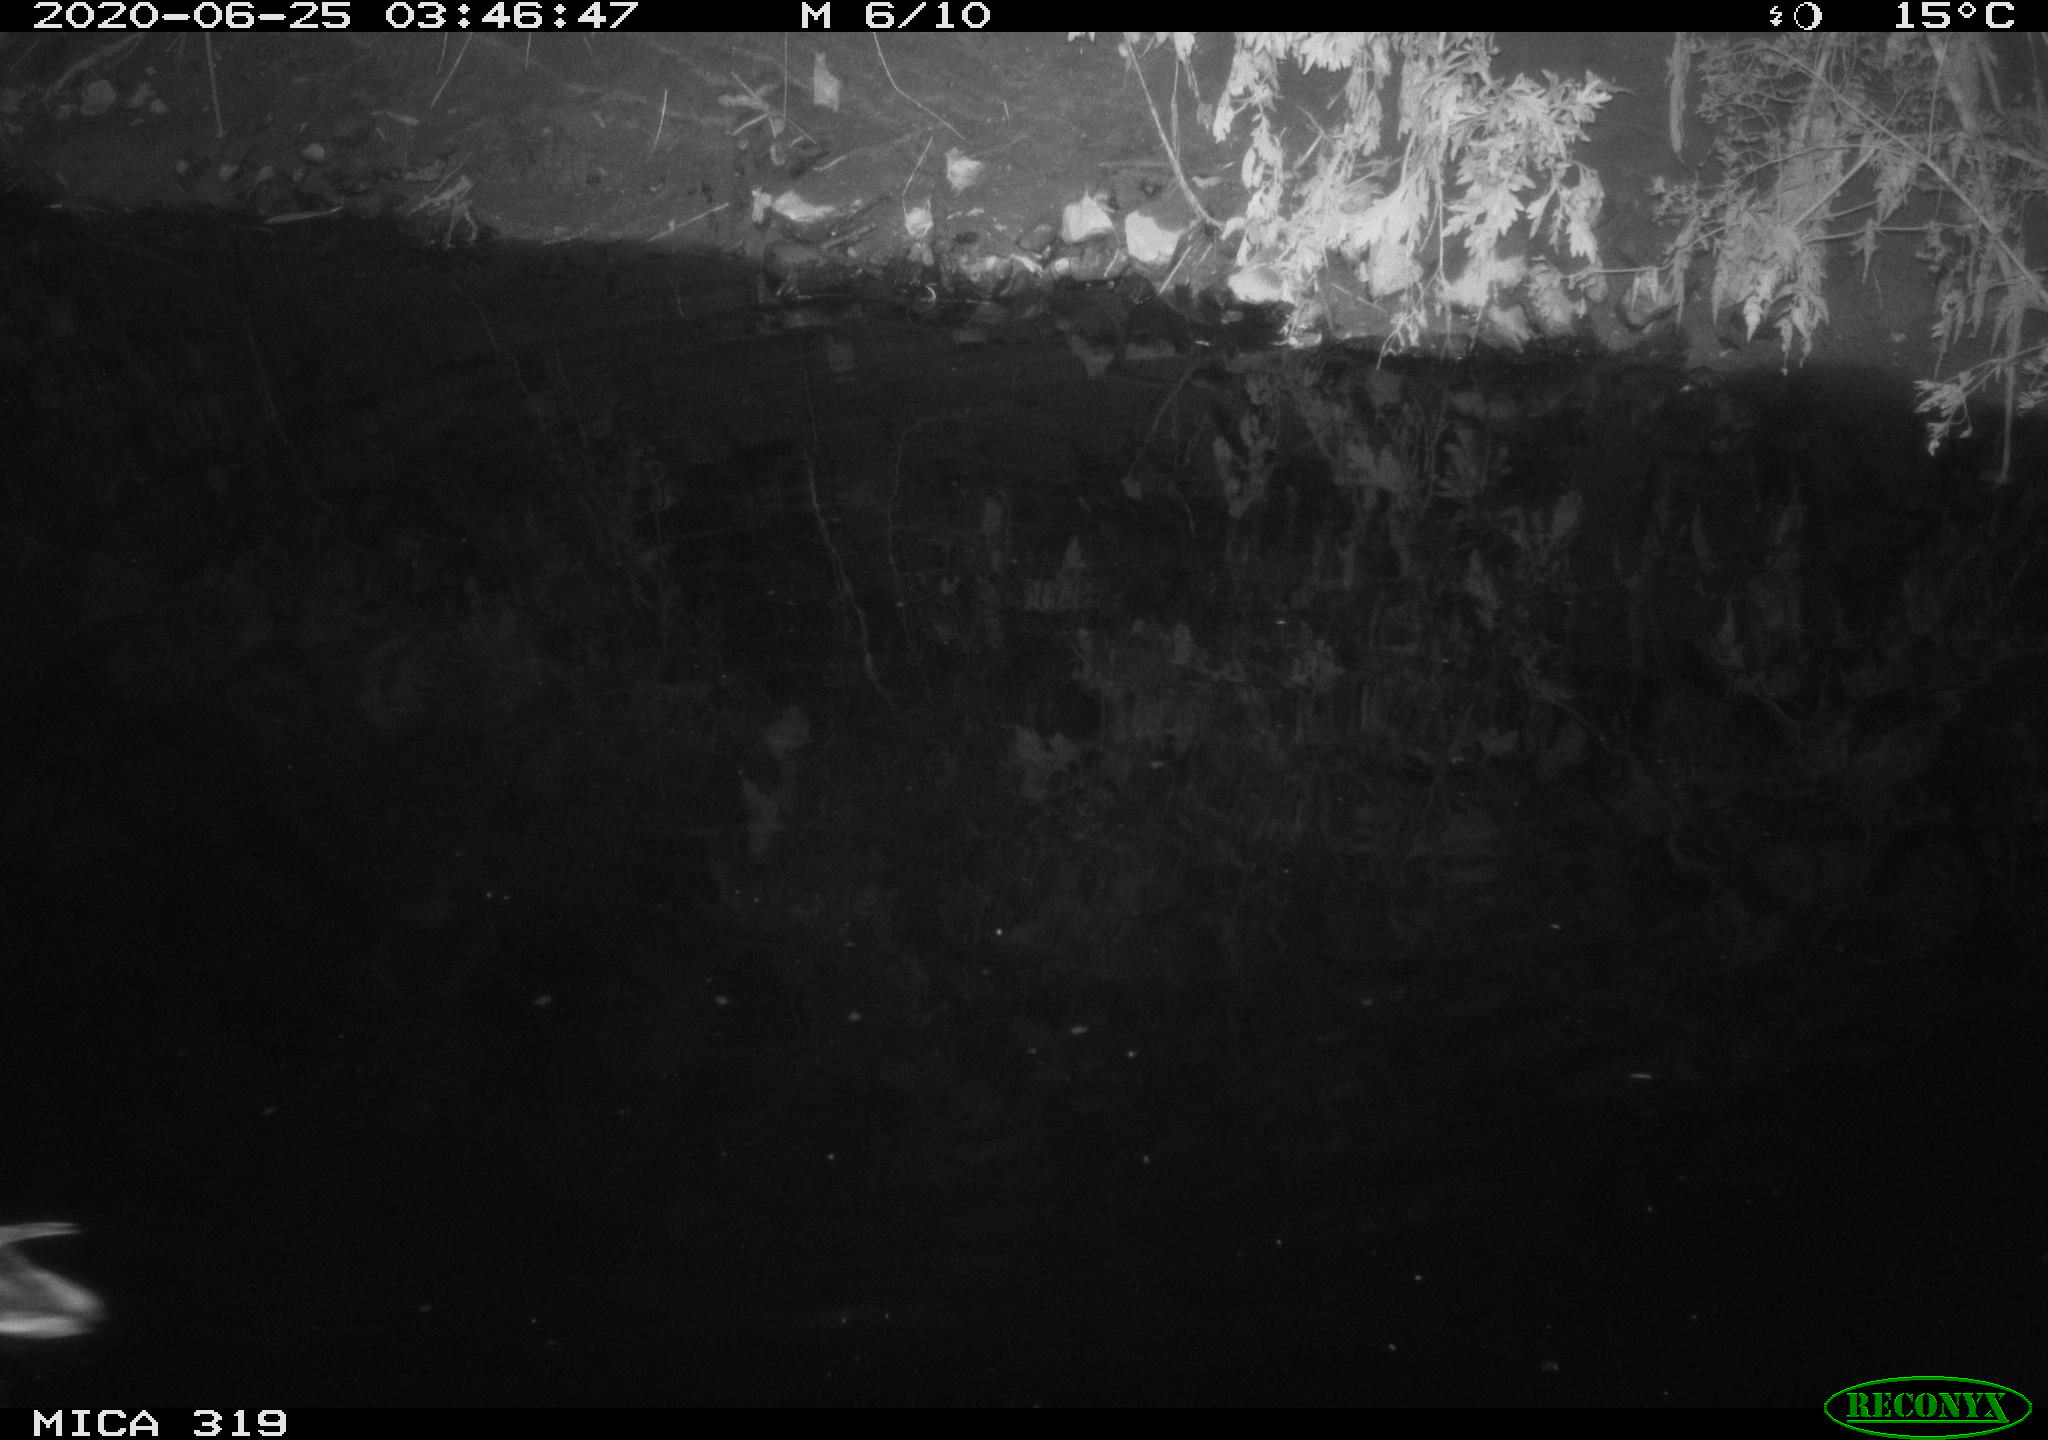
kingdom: Animalia
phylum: Chordata
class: Aves
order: Anseriformes
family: Anatidae
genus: Anas
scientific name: Anas platyrhynchos
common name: Mallard
